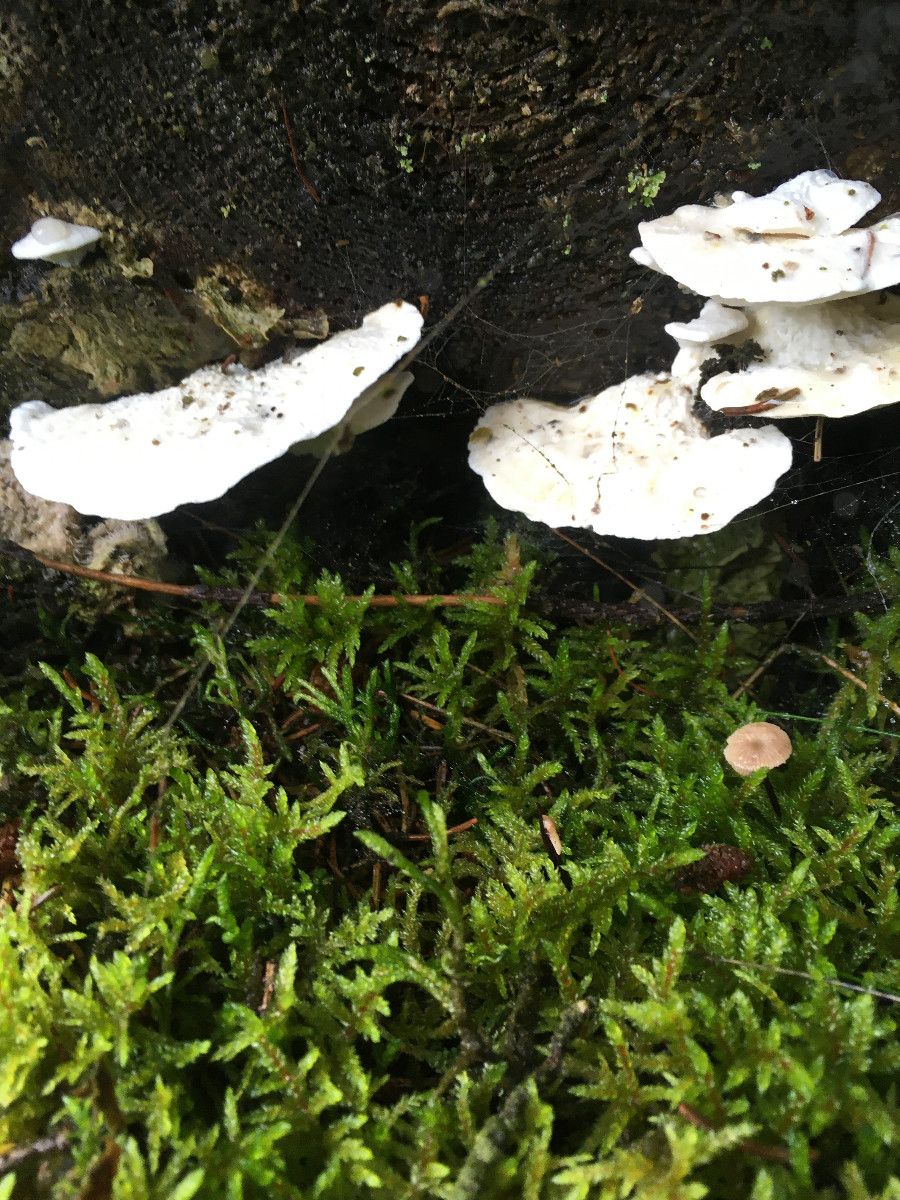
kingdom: Fungi
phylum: Basidiomycota
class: Agaricomycetes
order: Polyporales
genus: Amaropostia
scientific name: Amaropostia stiptica
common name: bitter kødporesvamp
